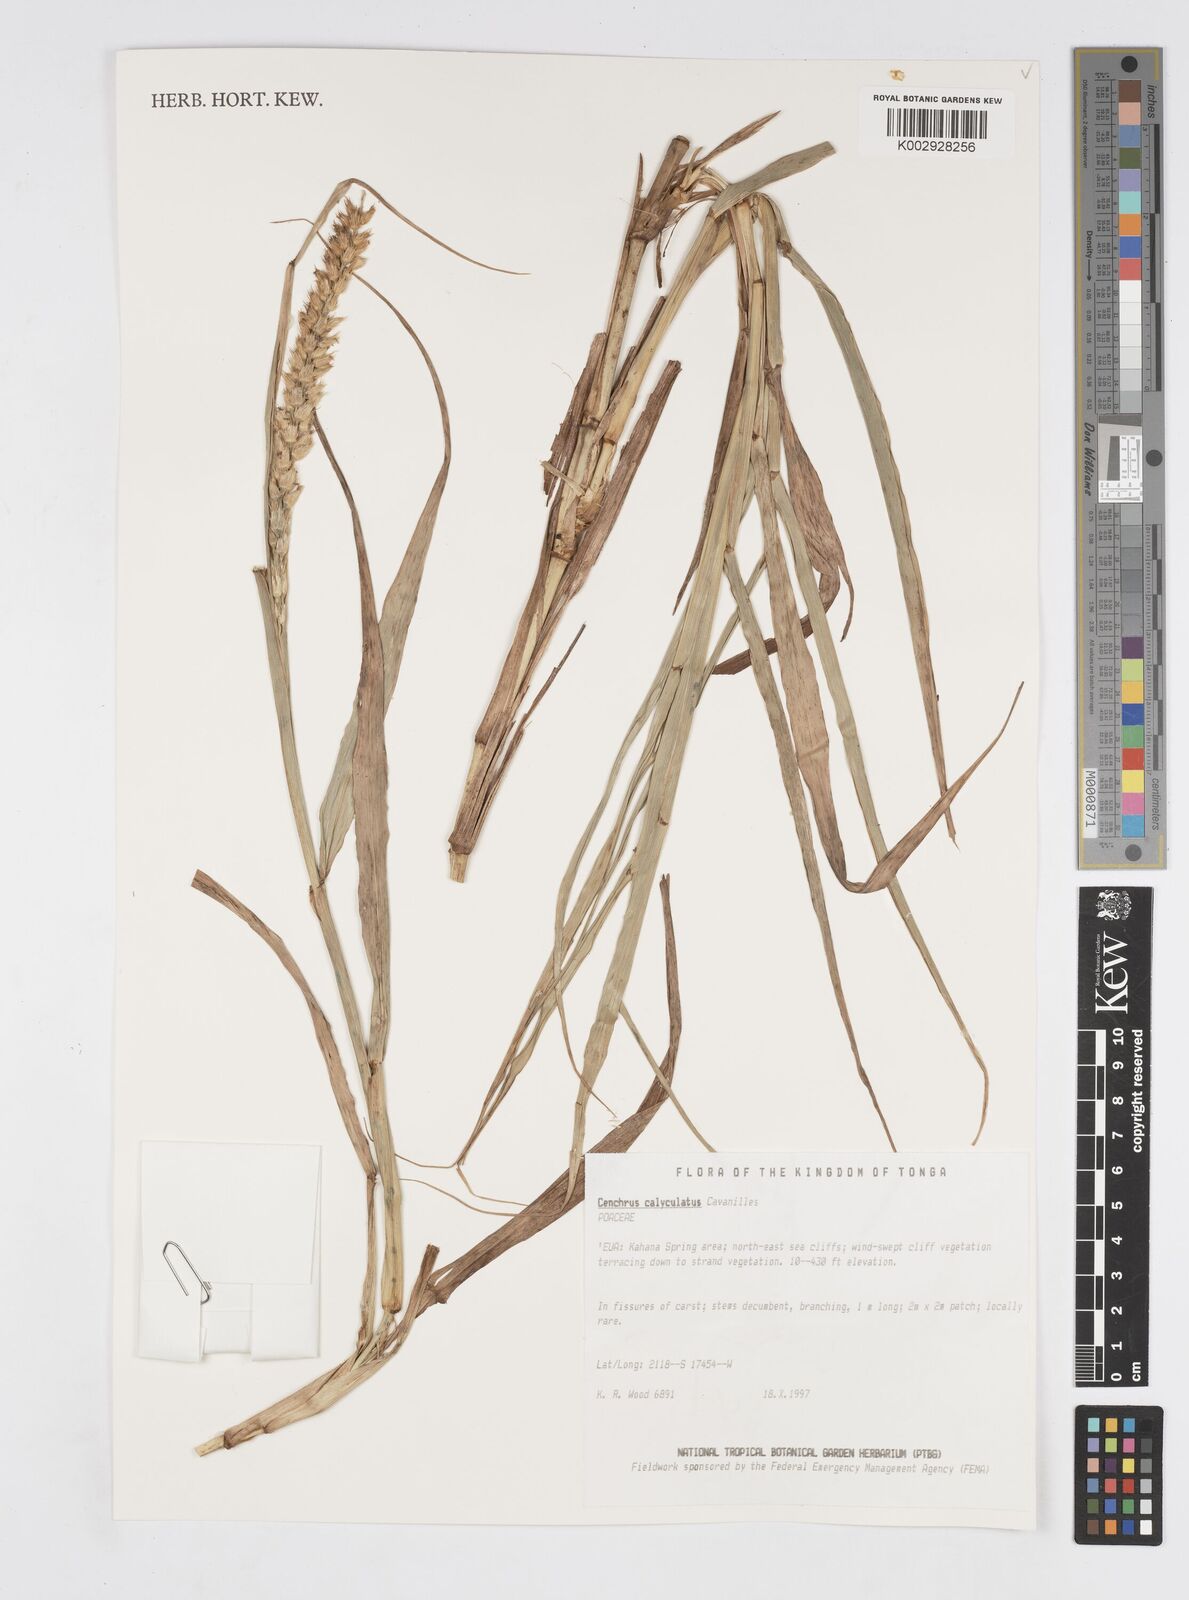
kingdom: Plantae
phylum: Tracheophyta
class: Liliopsida
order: Poales
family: Poaceae
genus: Cenchrus
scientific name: Cenchrus caliculatus
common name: Large bur grass
